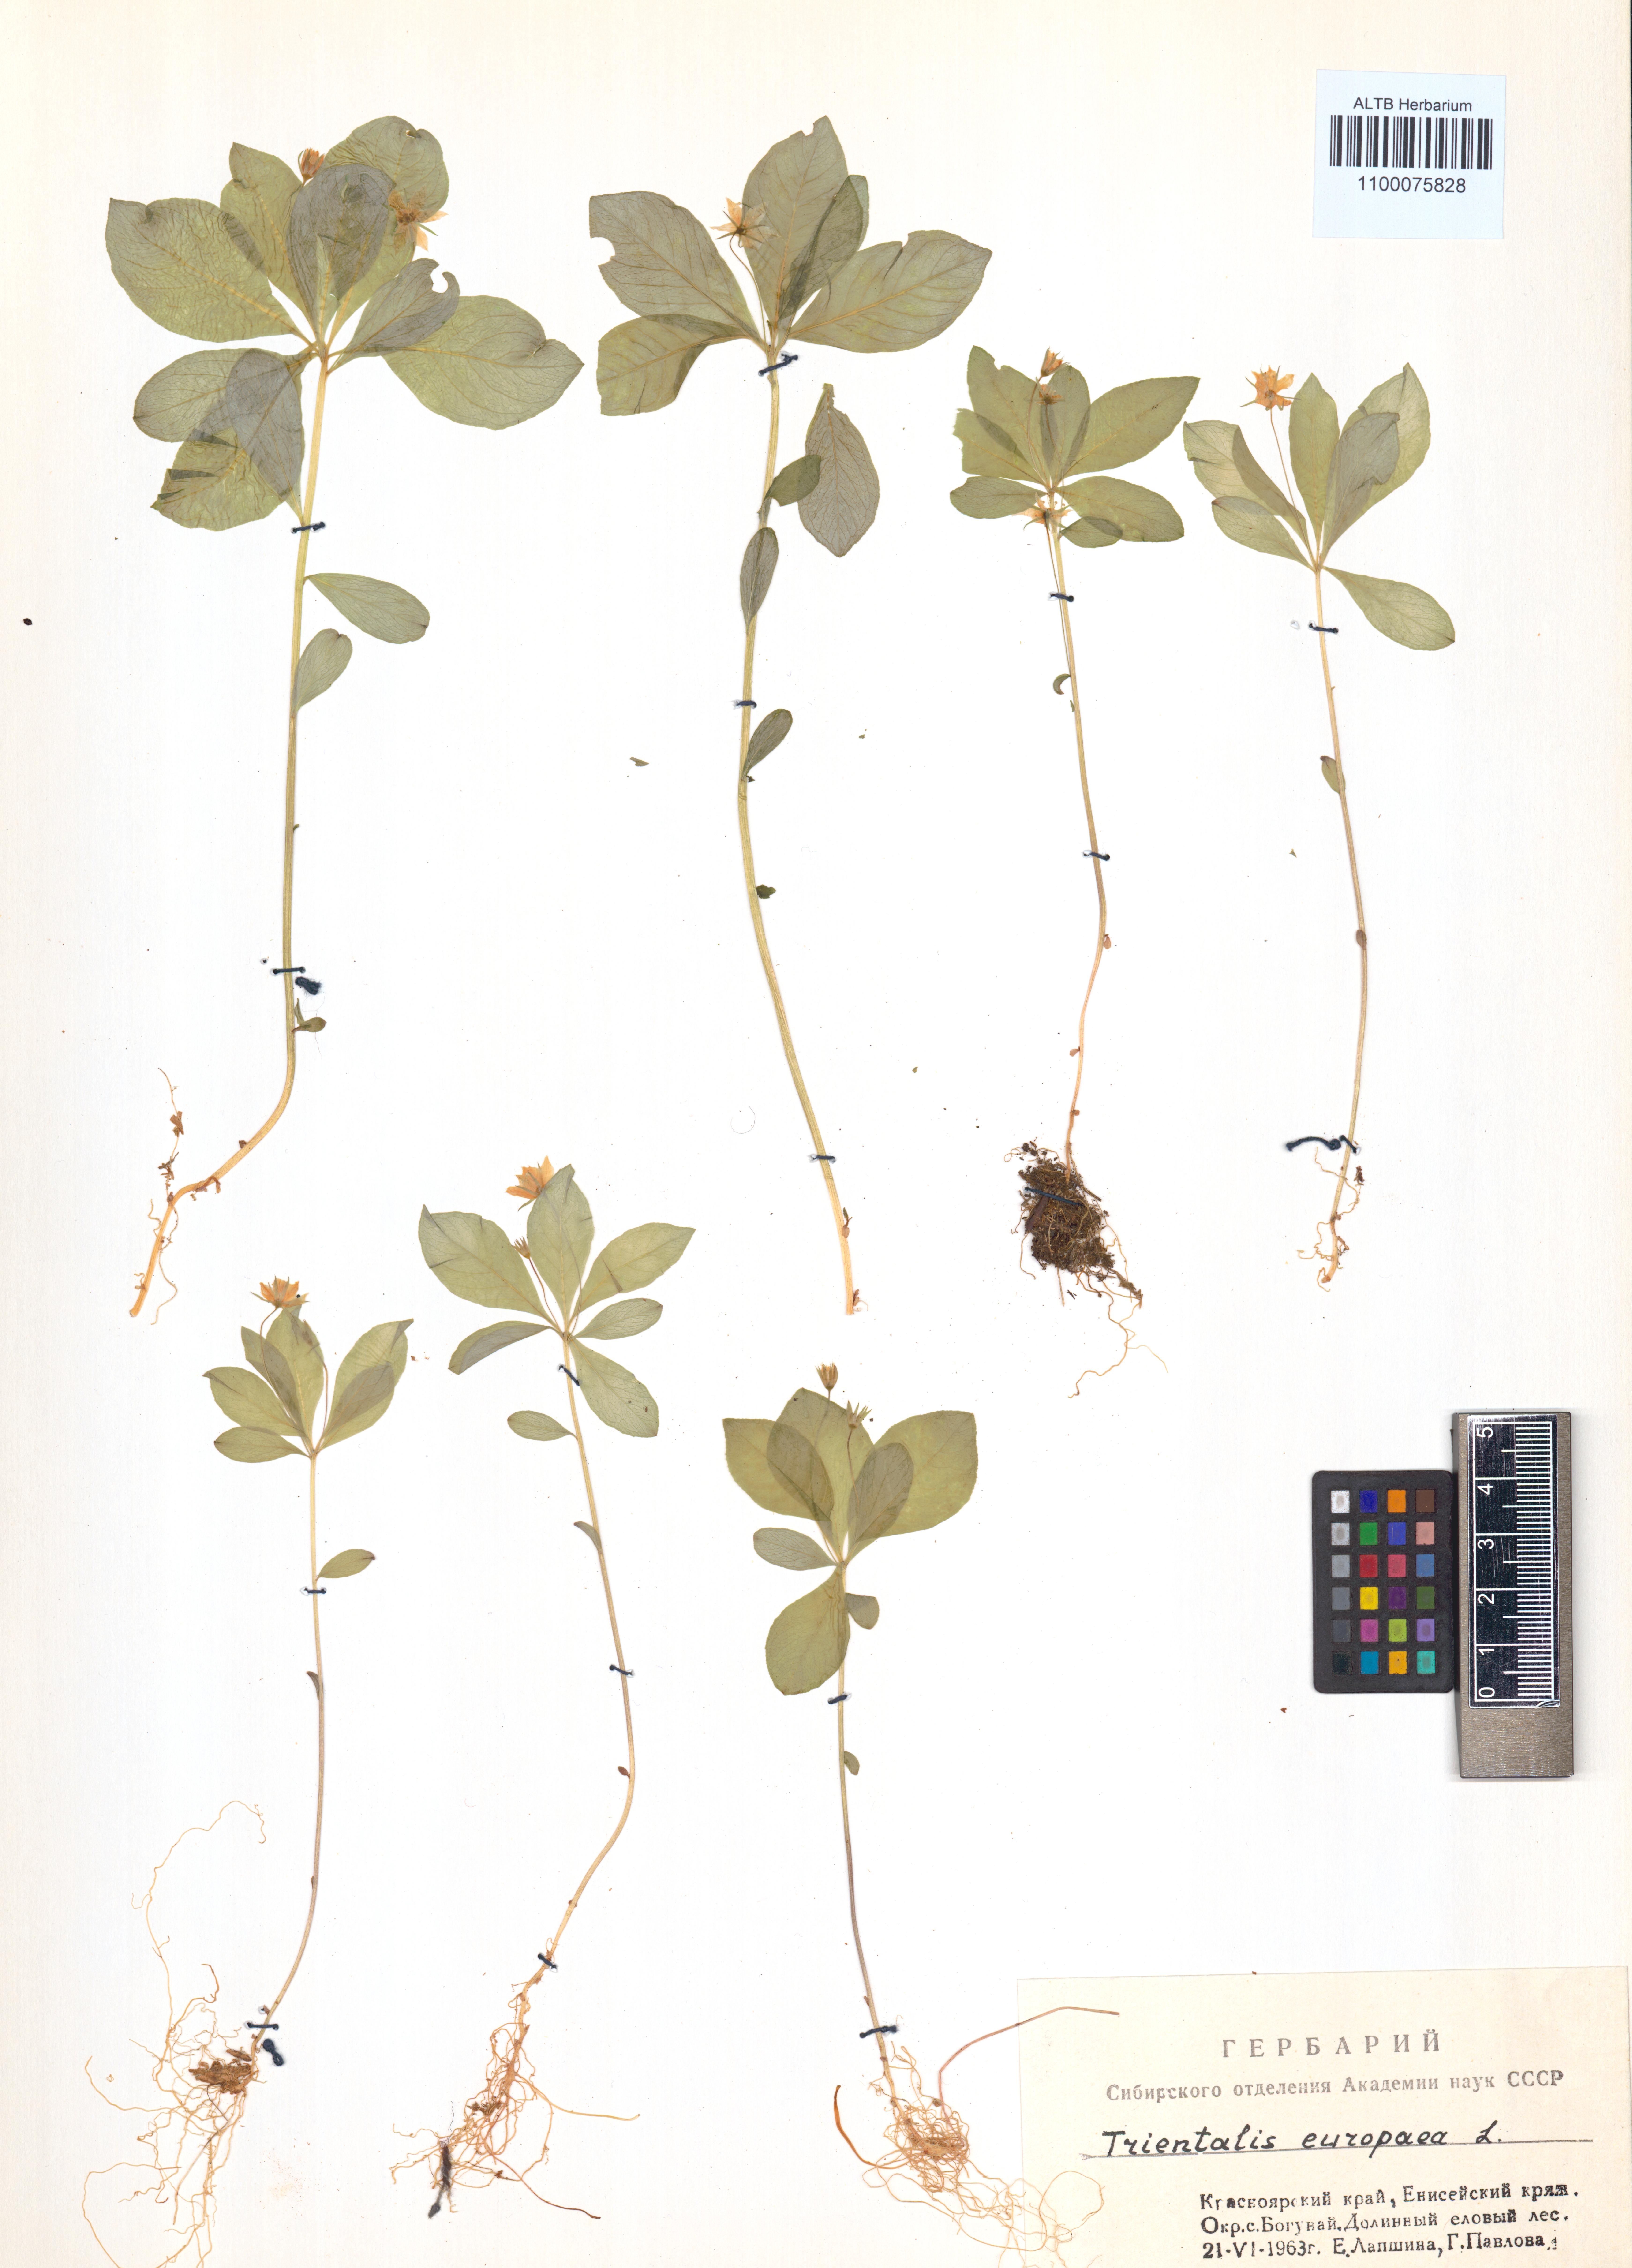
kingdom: Plantae
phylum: Tracheophyta
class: Magnoliopsida
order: Ericales
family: Primulaceae
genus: Lysimachia
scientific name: Lysimachia europaea
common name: Arctic starflower
